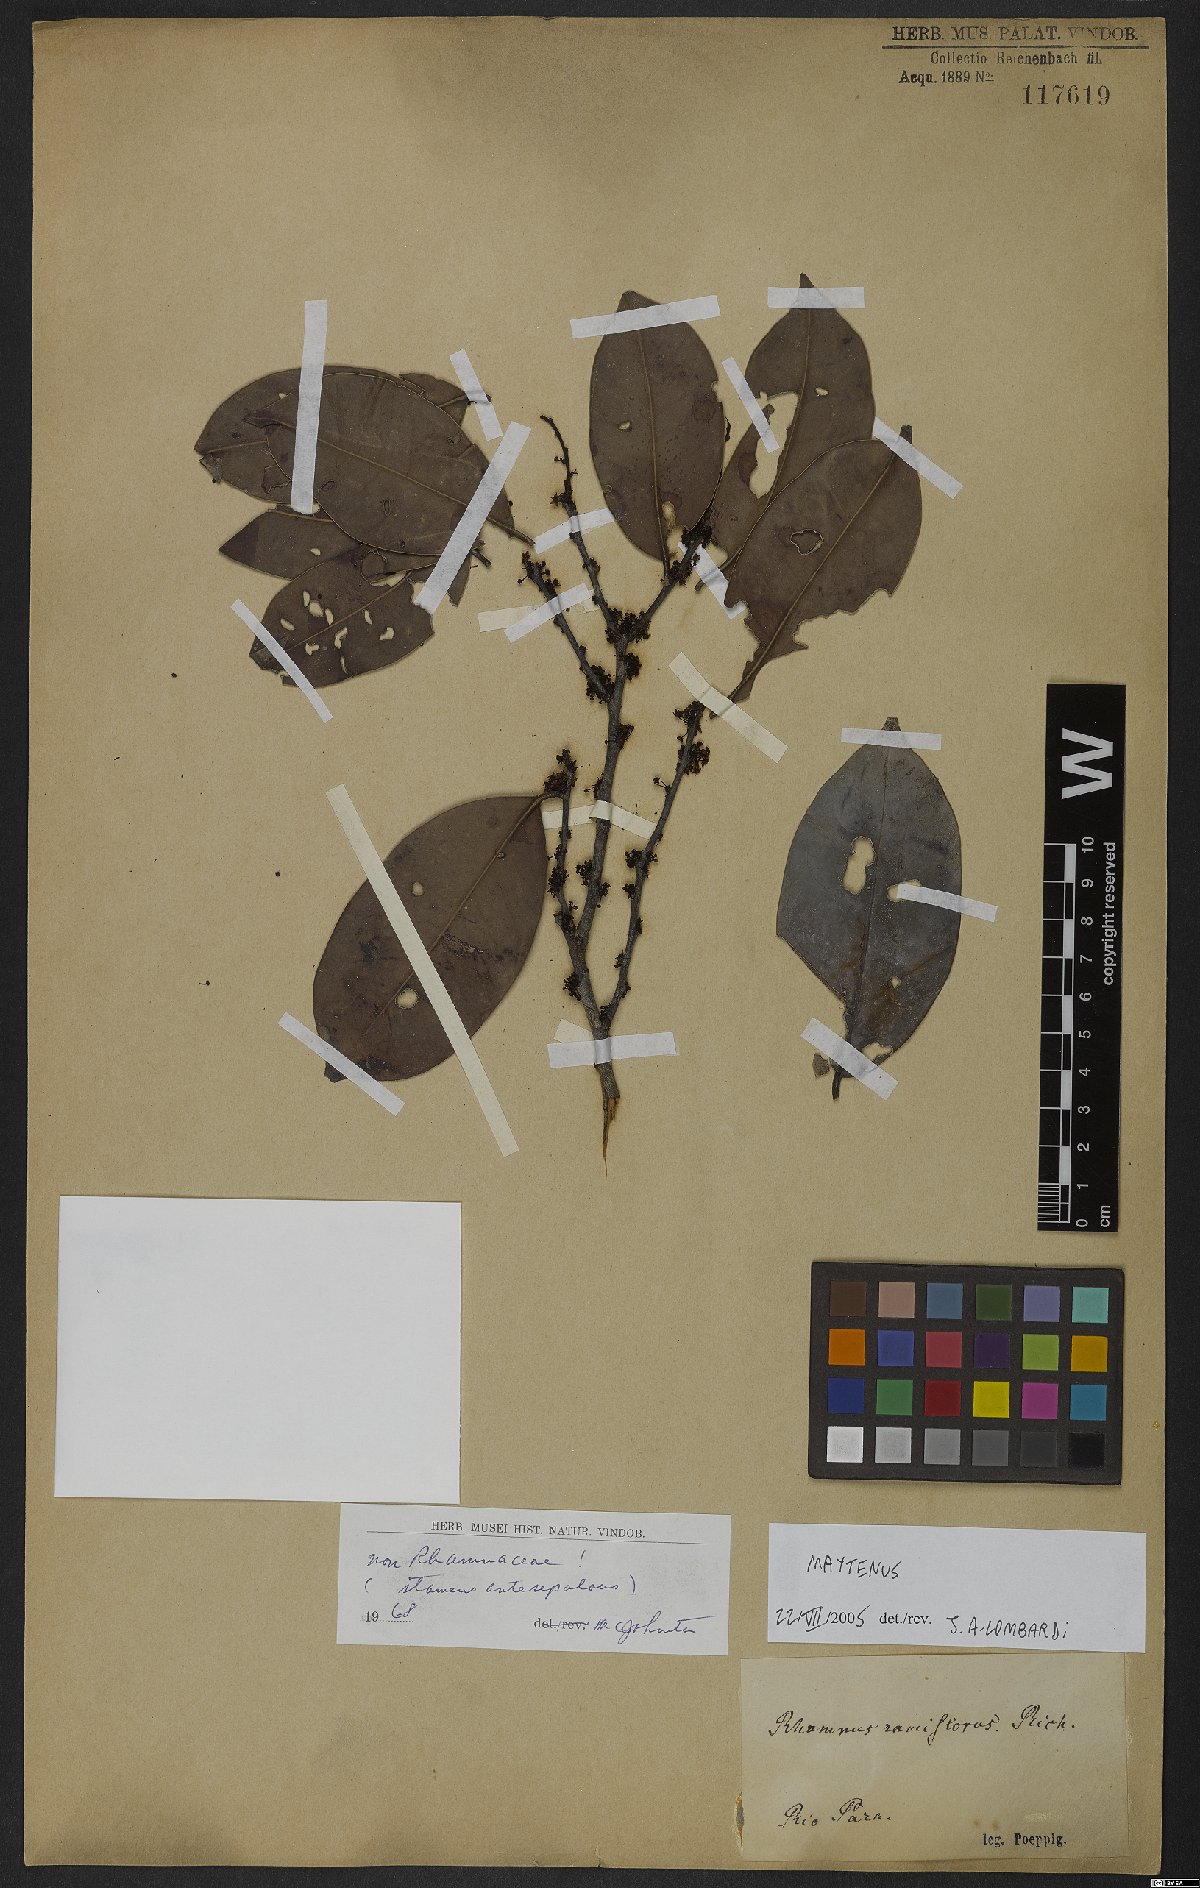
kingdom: Plantae
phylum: Tracheophyta
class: Magnoliopsida
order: Celastrales
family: Celastraceae
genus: Maytenus
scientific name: Maytenus
